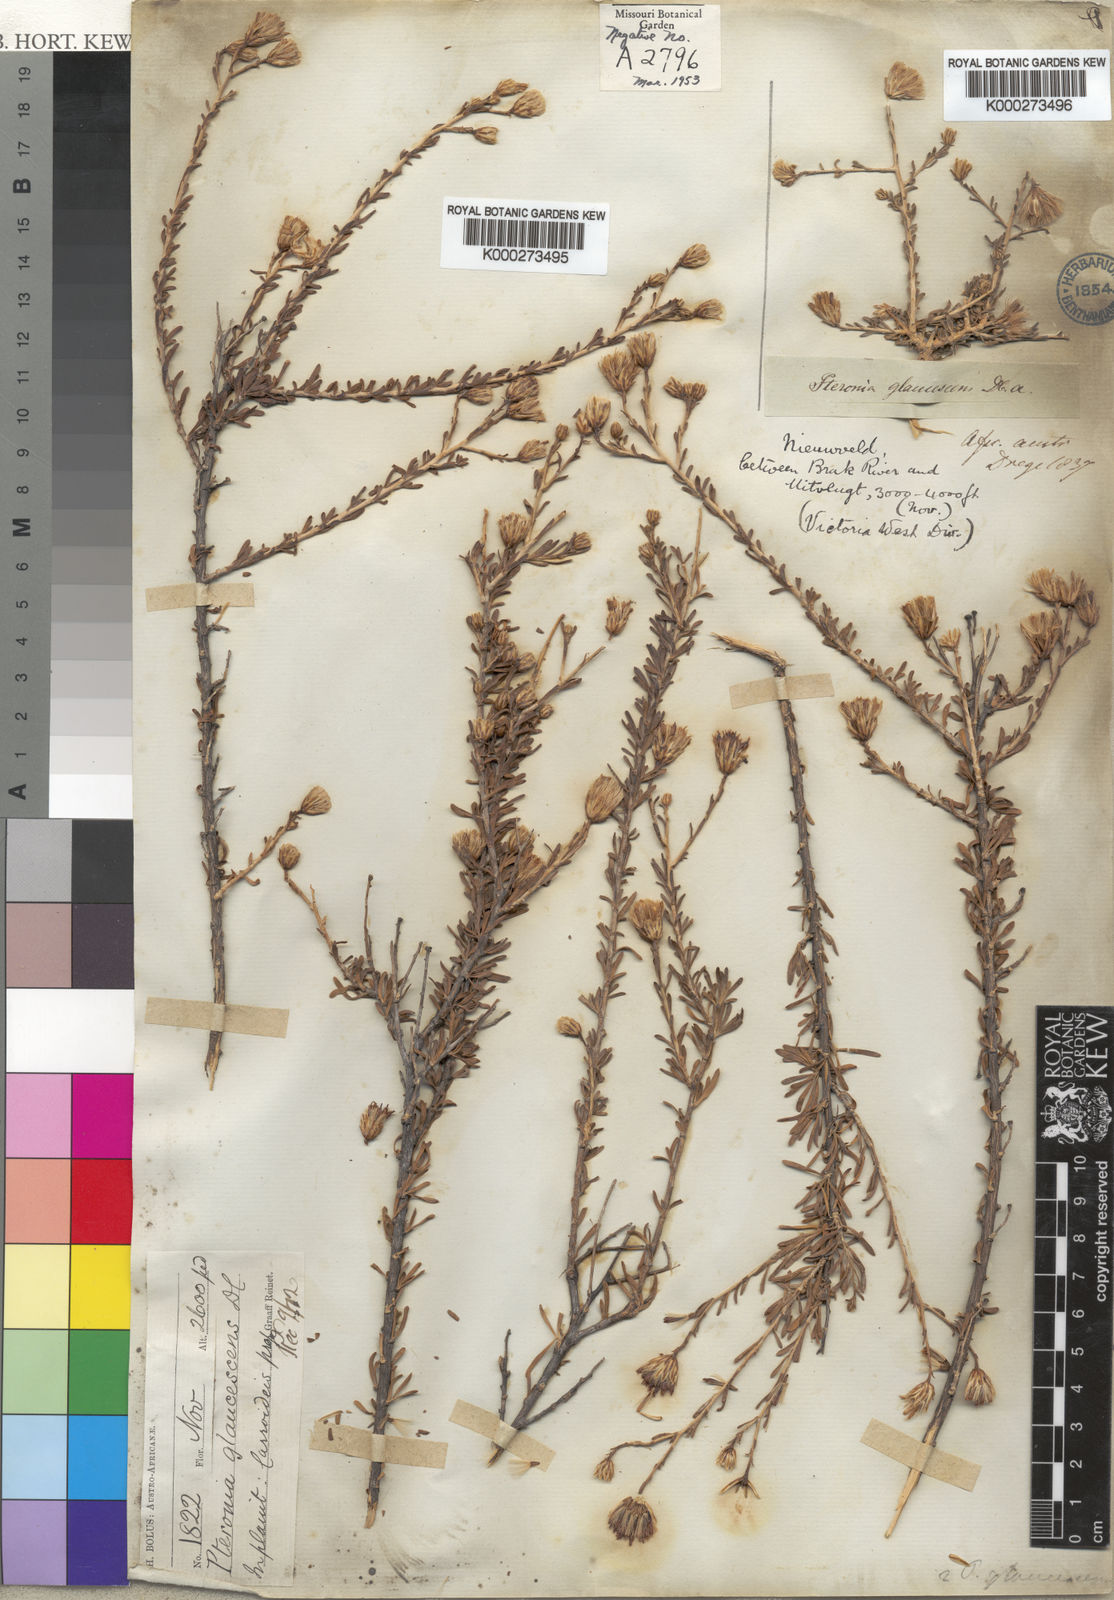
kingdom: Plantae
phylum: Tracheophyta
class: Magnoliopsida
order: Asterales
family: Asteraceae
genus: Pteronia
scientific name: Pteronia glaucescens
